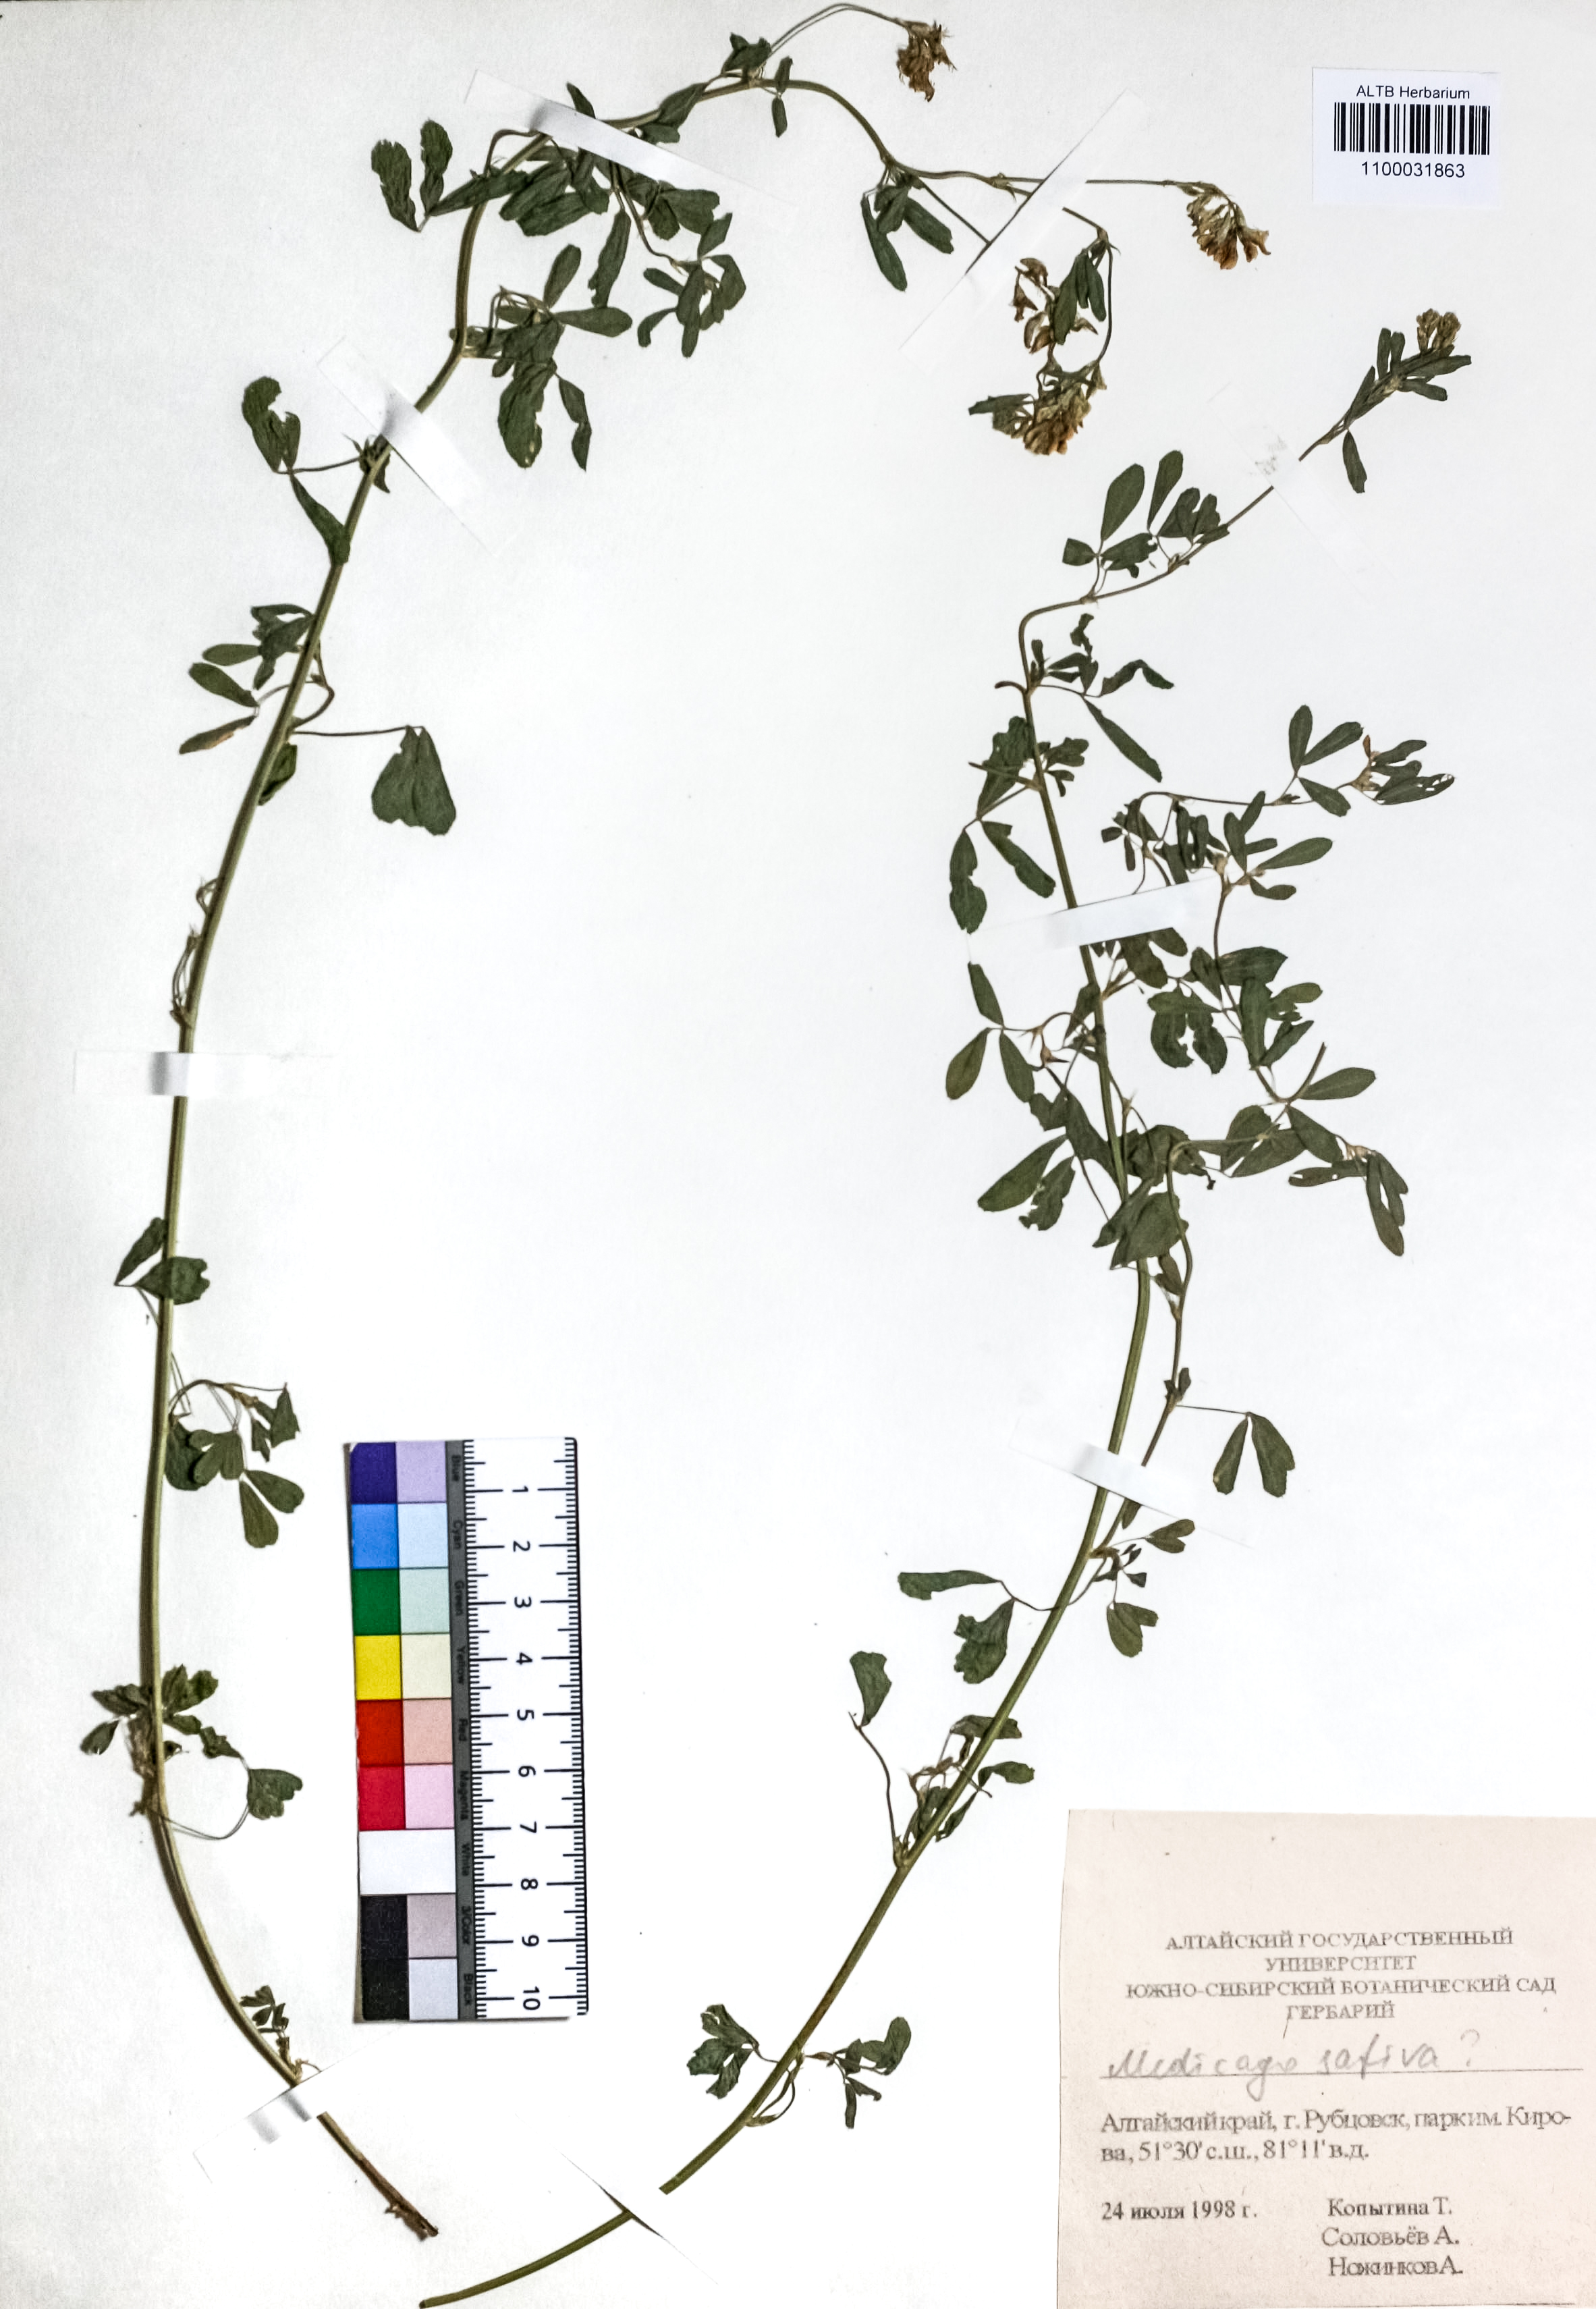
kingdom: Plantae
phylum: Tracheophyta
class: Magnoliopsida
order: Fabales
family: Fabaceae
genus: Medicago
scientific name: Medicago sativa
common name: Alfalfa
